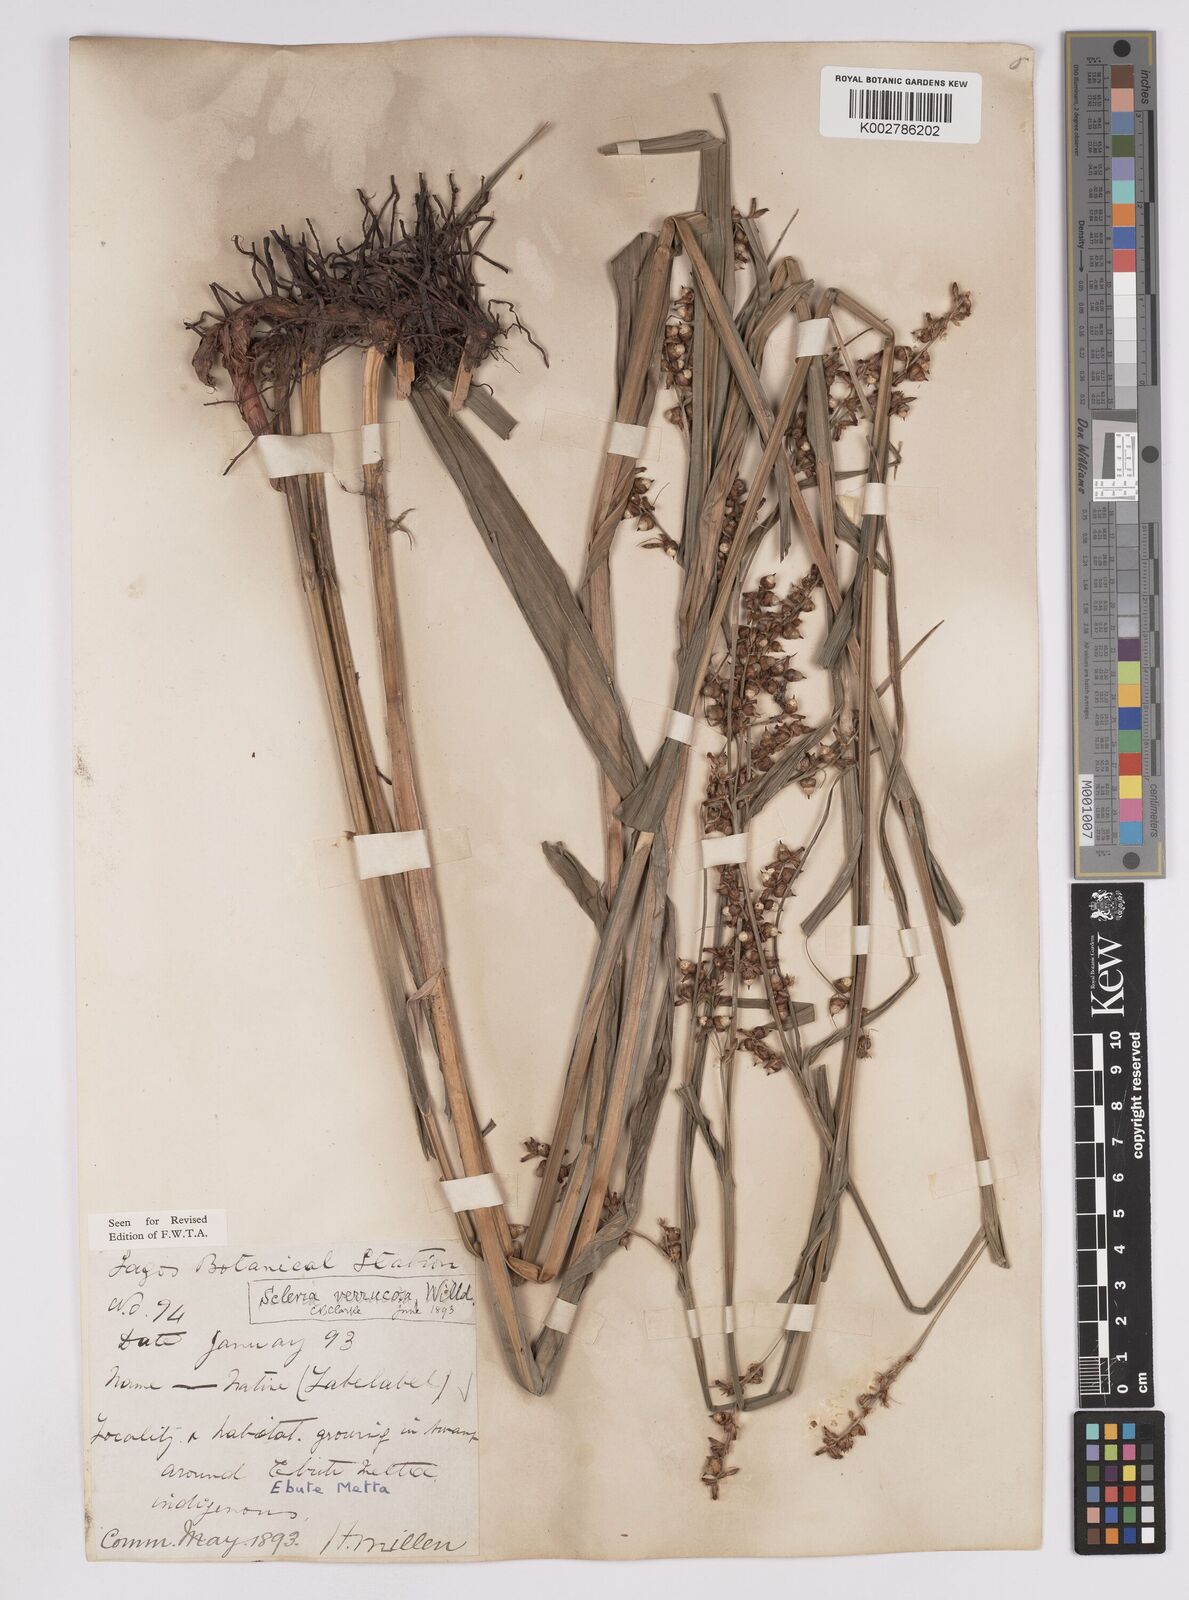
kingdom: Plantae
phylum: Tracheophyta
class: Liliopsida
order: Poales
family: Cyperaceae
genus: Scleria
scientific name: Scleria verrucosa
